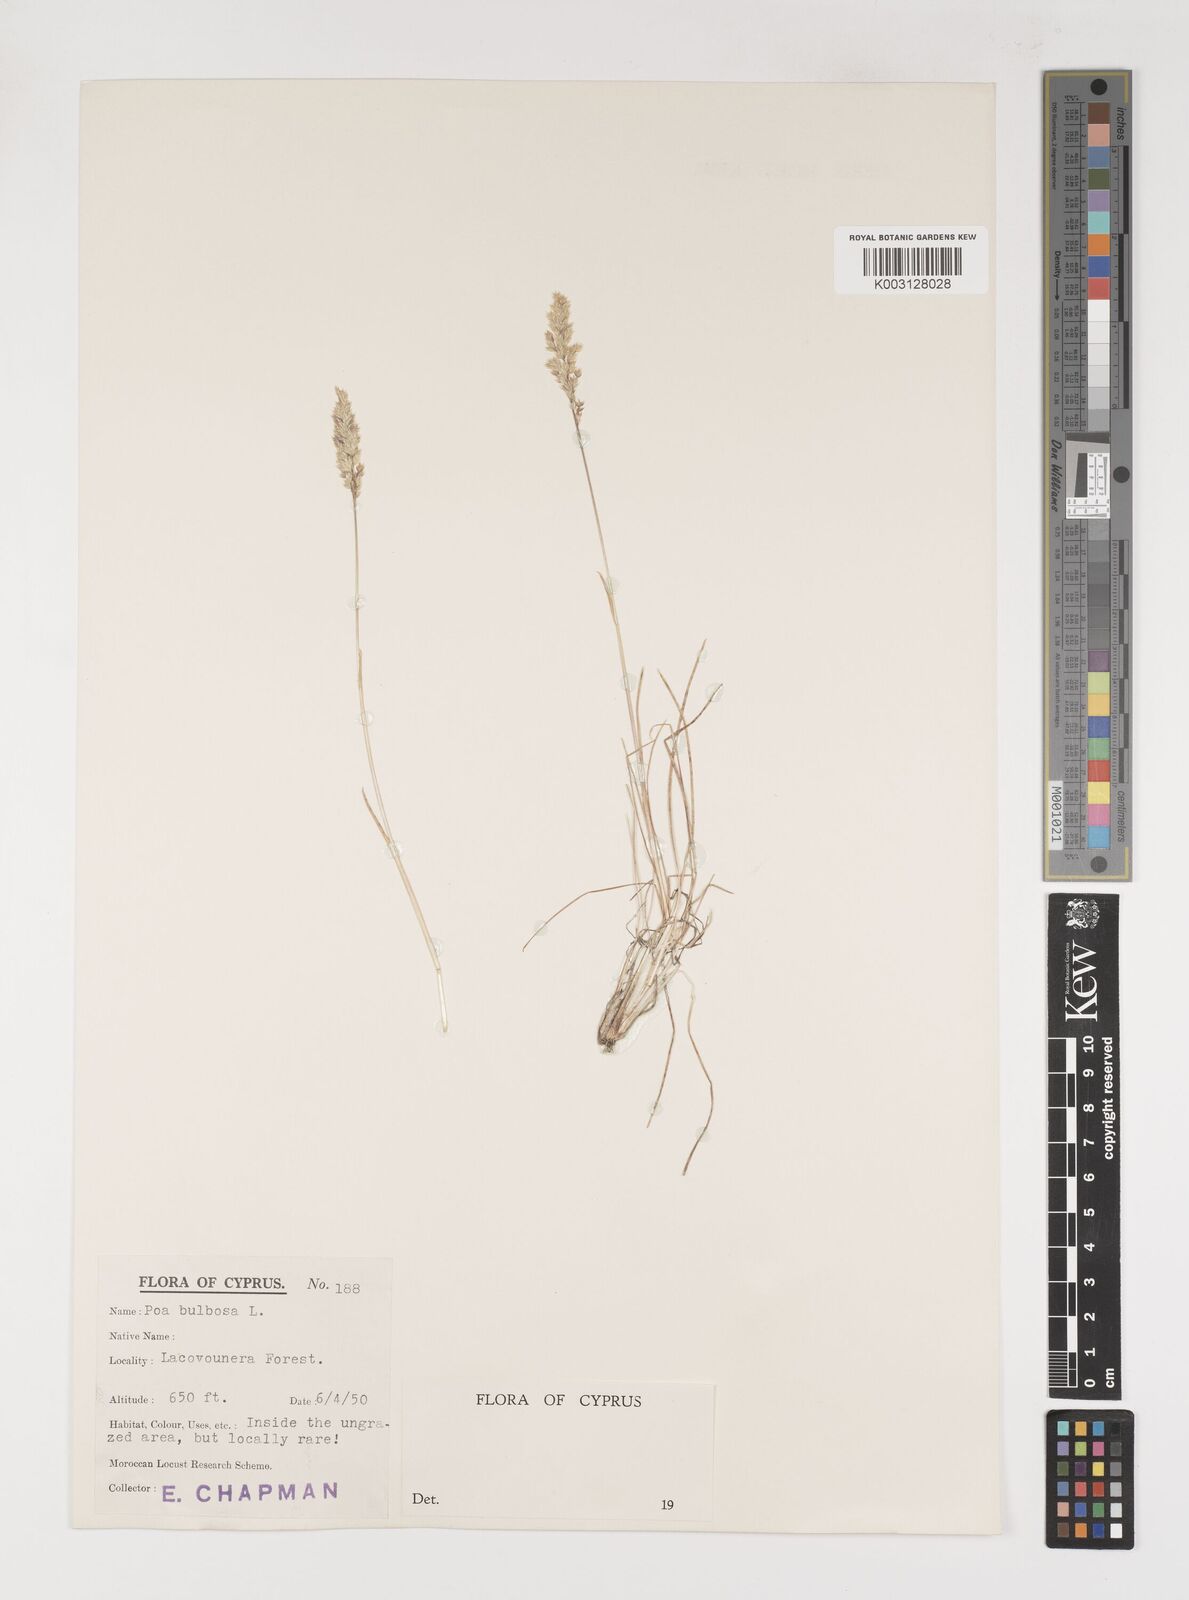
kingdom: Plantae
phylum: Tracheophyta
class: Liliopsida
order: Poales
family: Poaceae
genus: Poa
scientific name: Poa bulbosa
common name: Bulbous bluegrass
